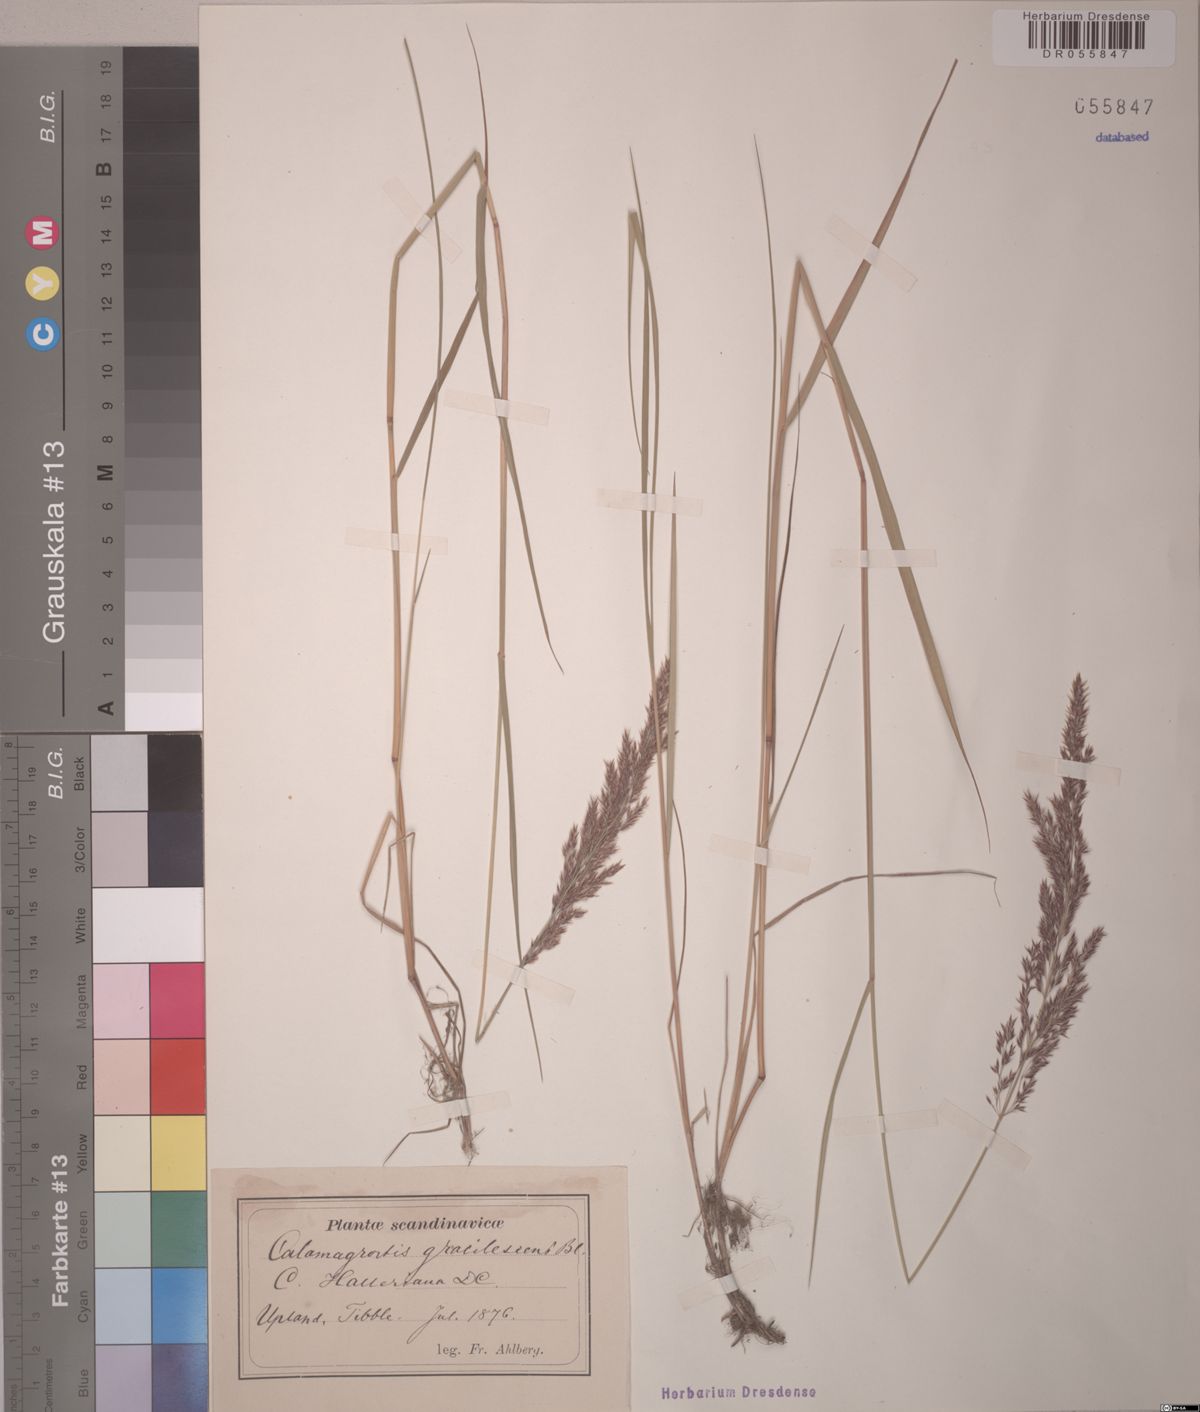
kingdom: Plantae
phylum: Tracheophyta
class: Liliopsida
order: Poales
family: Poaceae
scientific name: Poaceae
